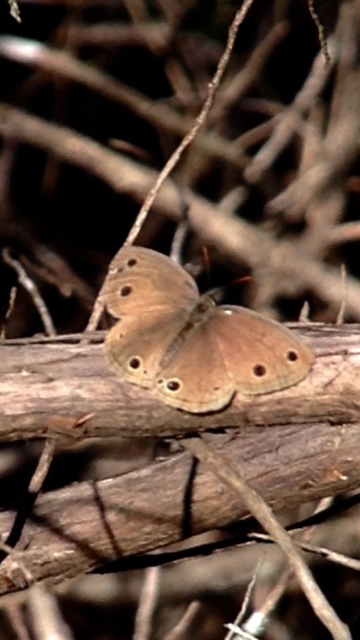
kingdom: Animalia
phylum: Arthropoda
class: Insecta
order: Lepidoptera
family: Nymphalidae
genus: Euptychia
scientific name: Euptychia cymela
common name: Little Wood Satyr
